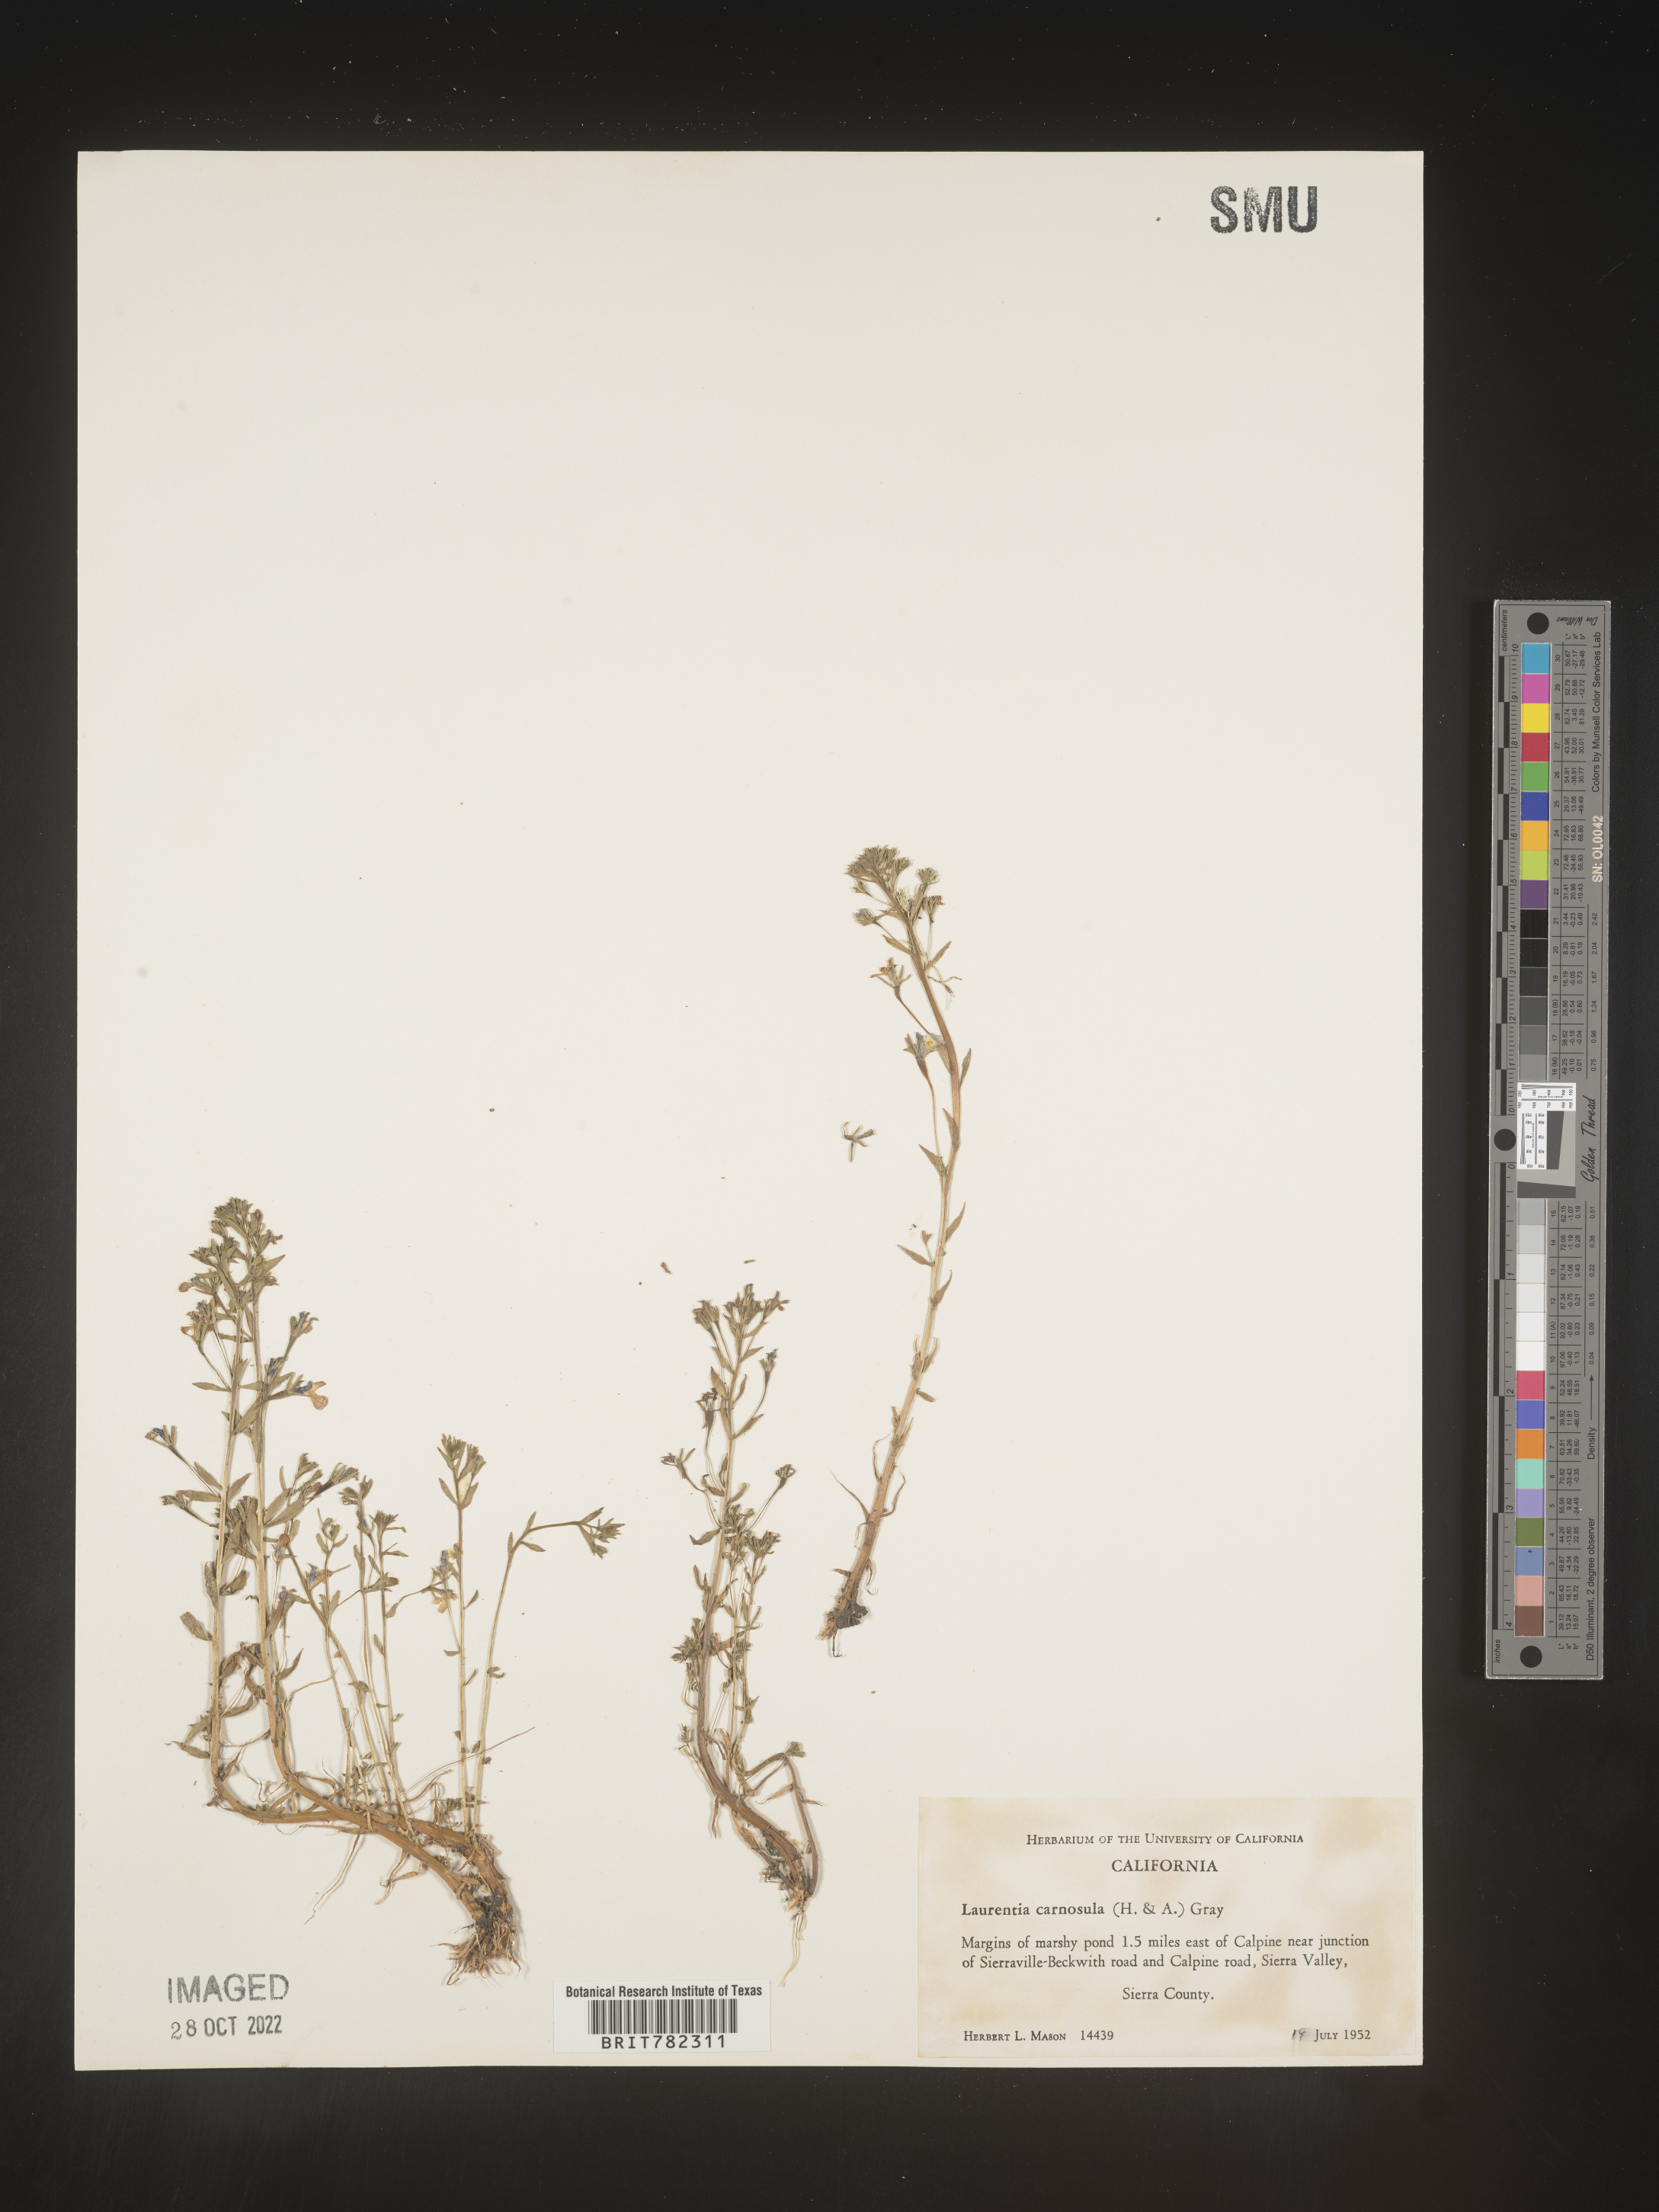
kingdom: Plantae
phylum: Tracheophyta
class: Magnoliopsida
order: Asterales
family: Campanulaceae
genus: Lobelia
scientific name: Lobelia Laurentia michelii
